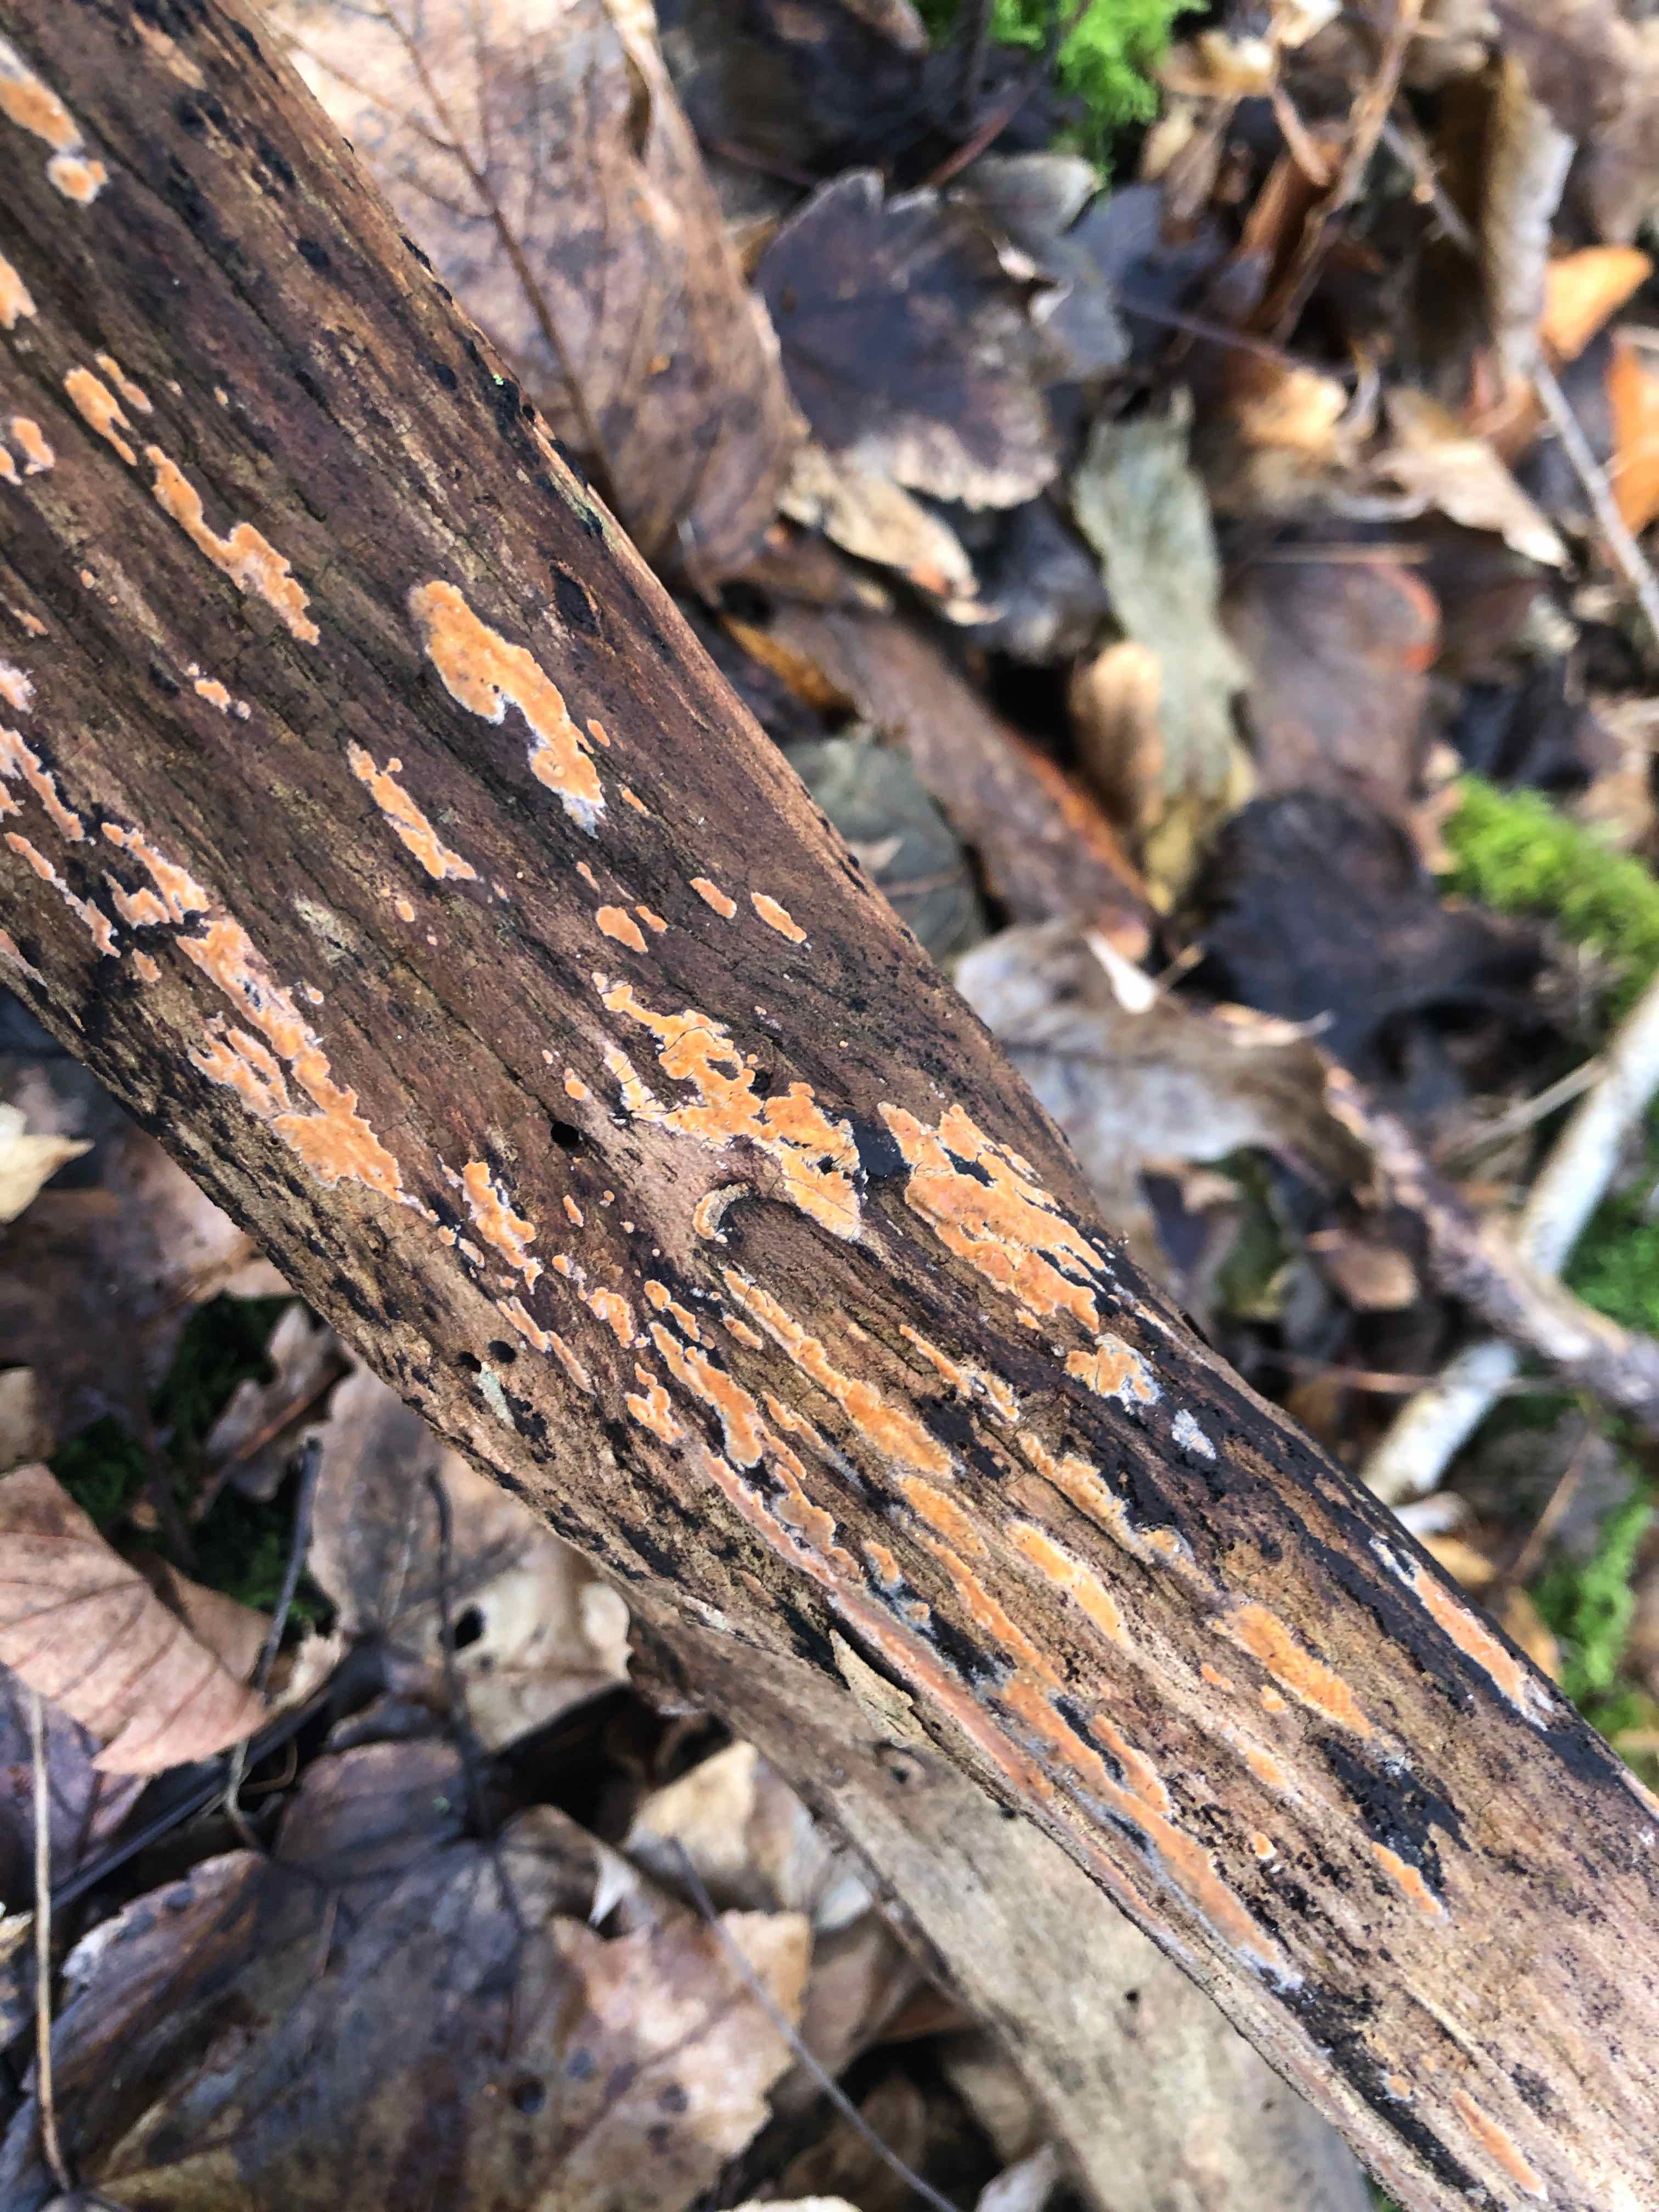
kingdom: Fungi
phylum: Basidiomycota
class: Agaricomycetes
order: Russulales
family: Peniophoraceae
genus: Peniophora
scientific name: Peniophora incarnata
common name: laksefarvet voksskind
